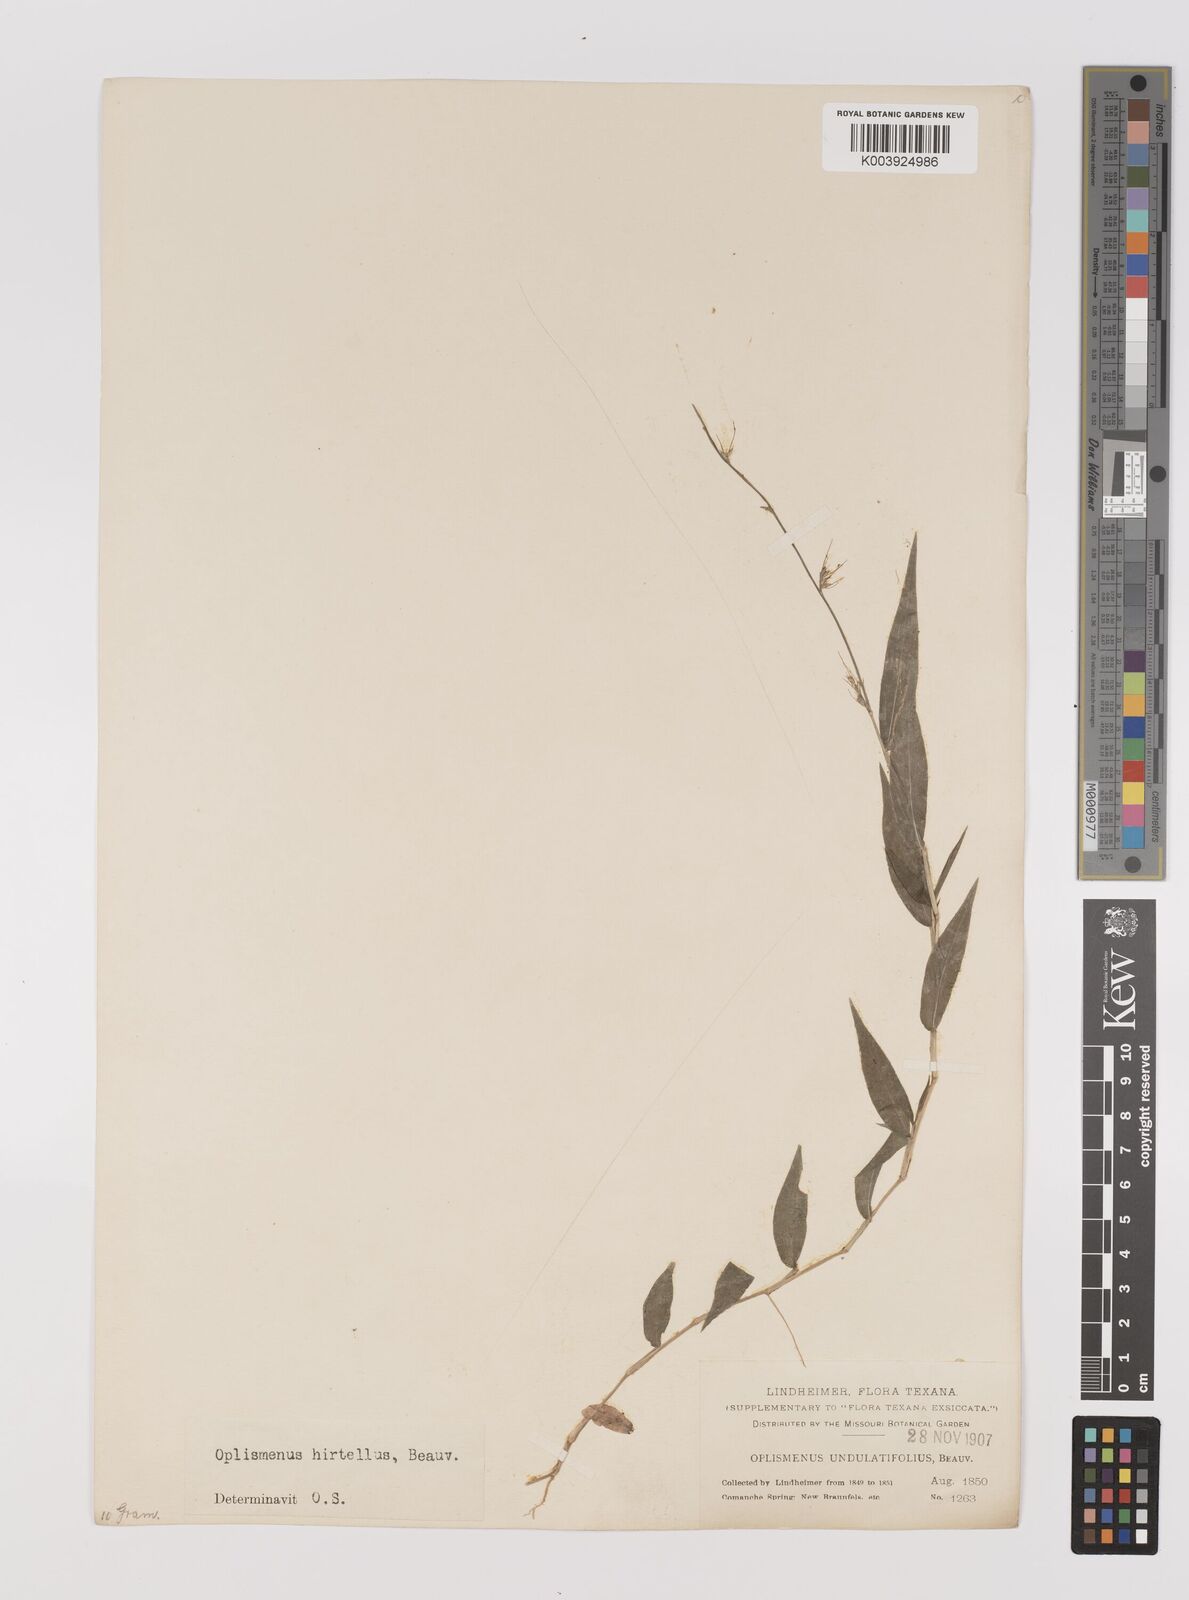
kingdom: Plantae
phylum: Tracheophyta
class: Liliopsida
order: Poales
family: Poaceae
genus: Oplismenus
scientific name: Oplismenus hirtellus
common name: Basketgrass
